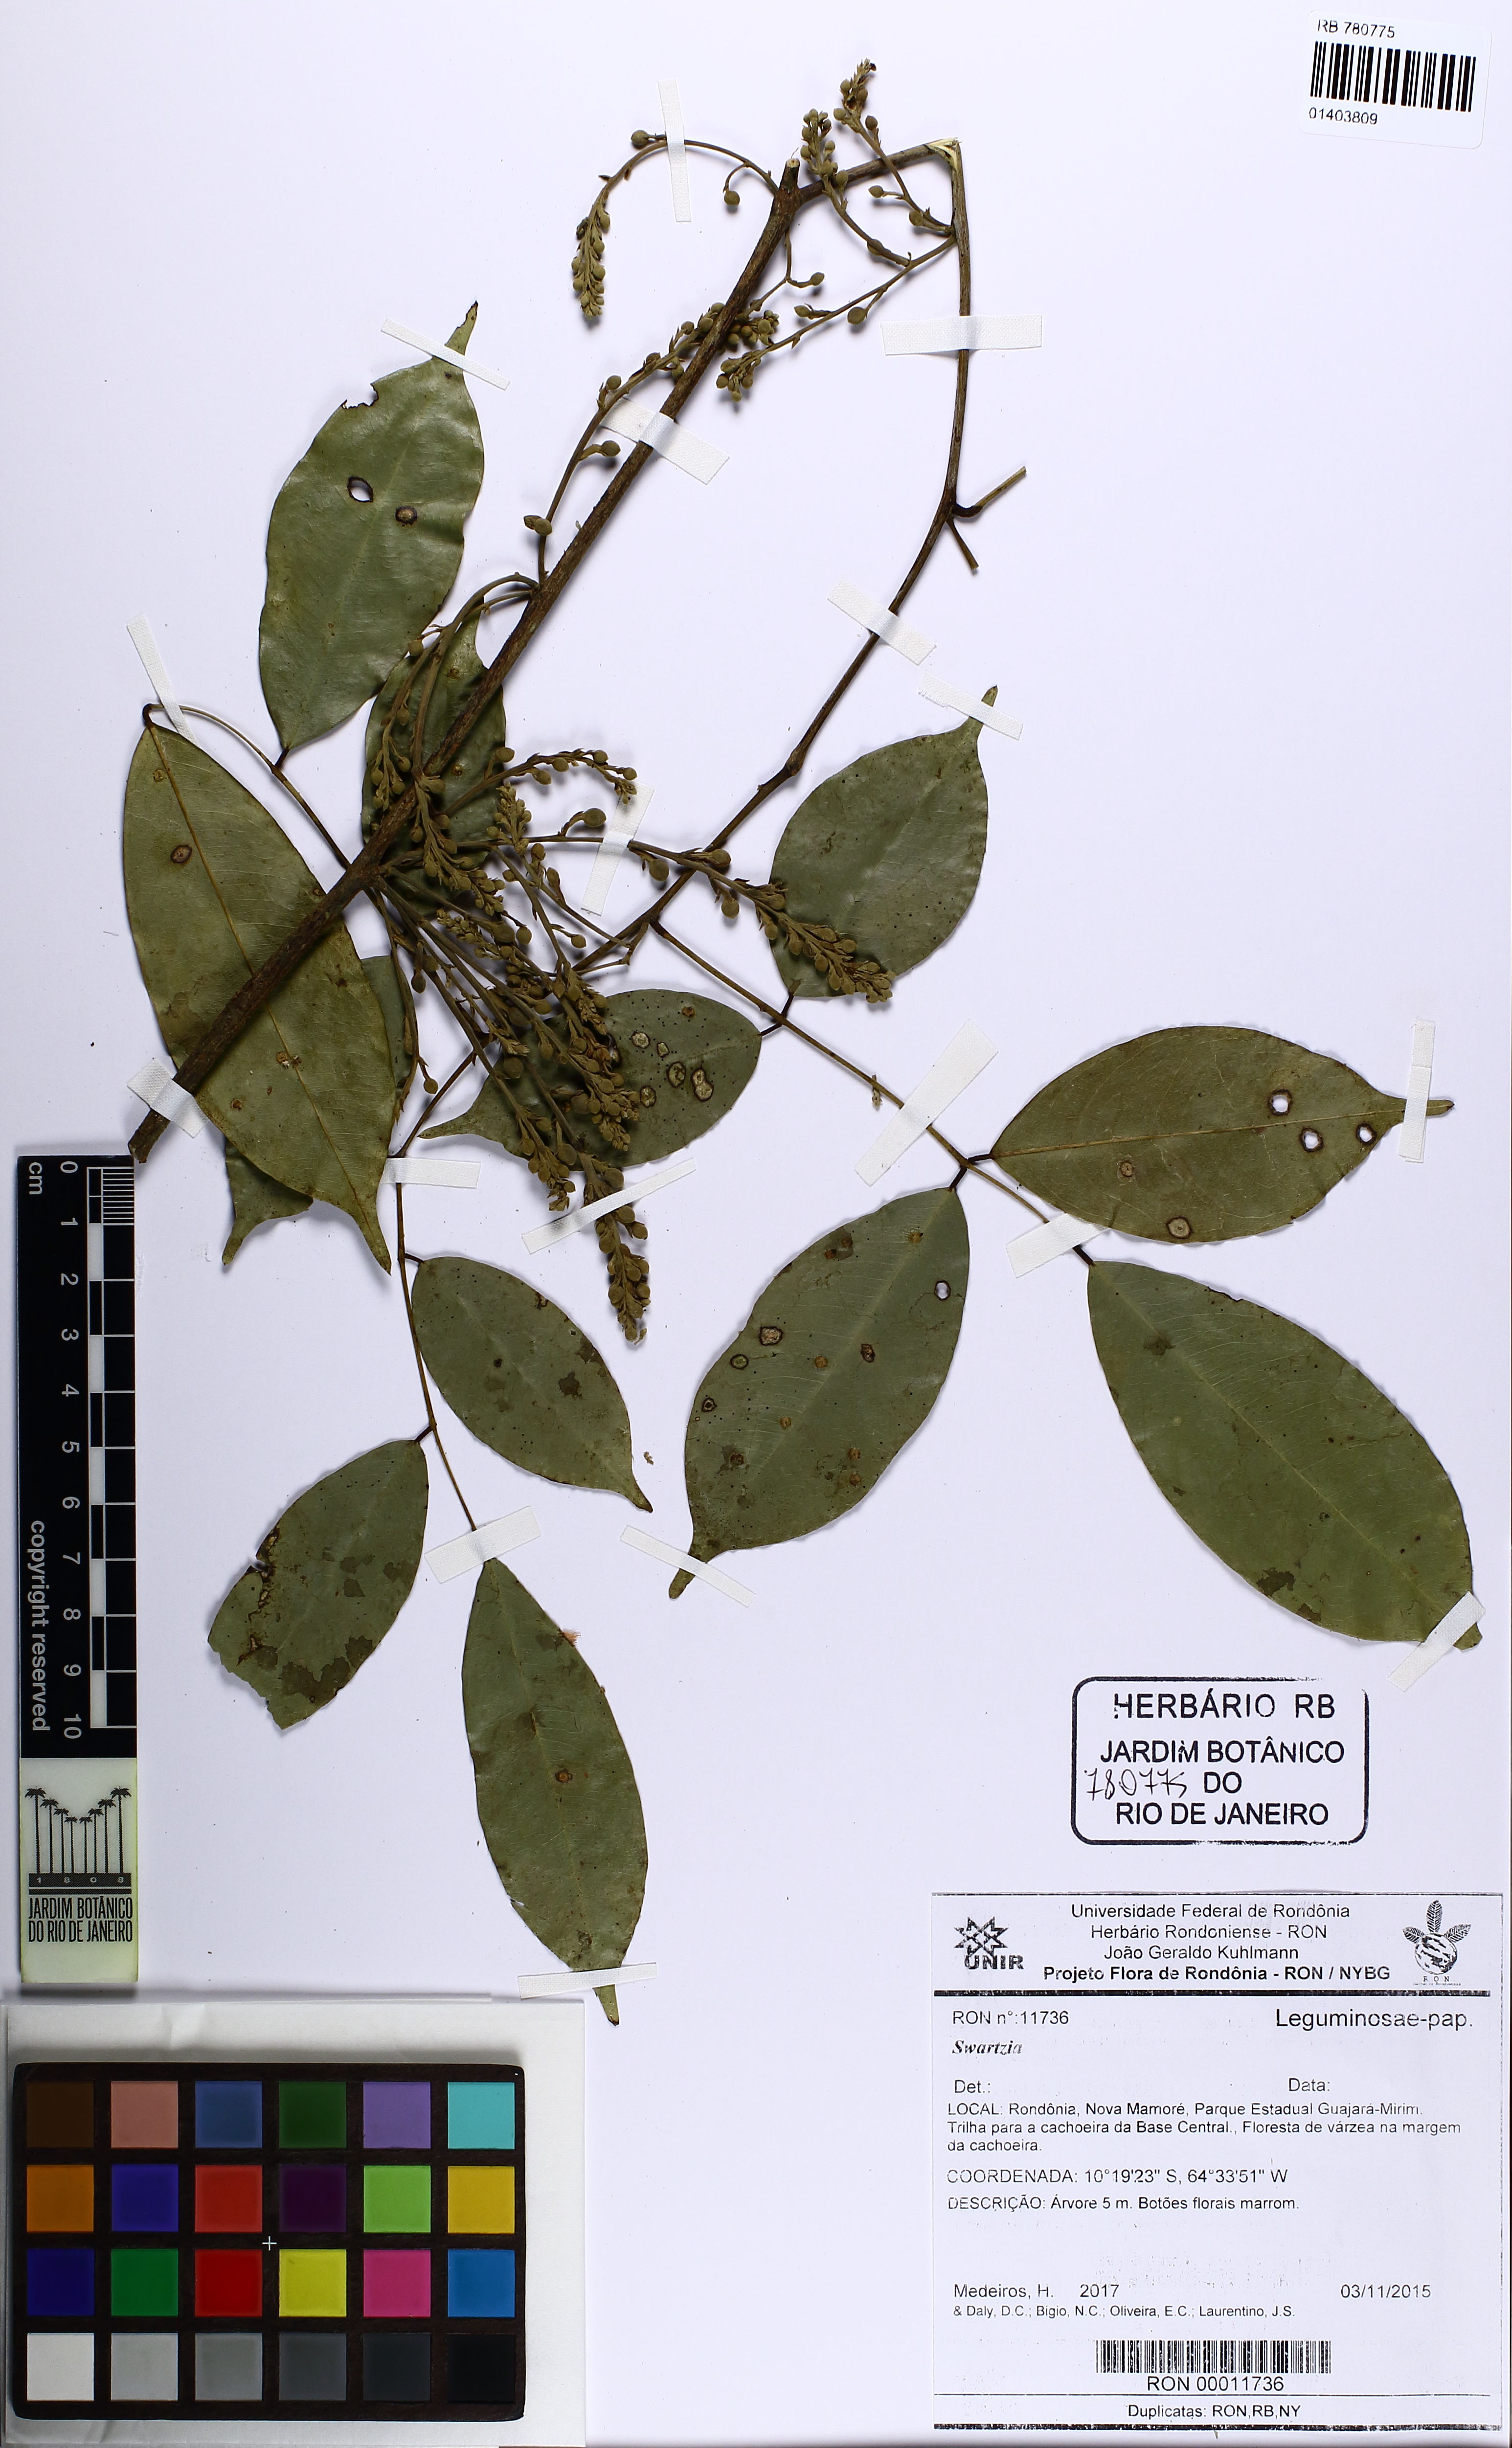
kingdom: Plantae
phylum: Tracheophyta
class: Magnoliopsida
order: Fabales
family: Fabaceae
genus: Swartzia
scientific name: Swartzia
